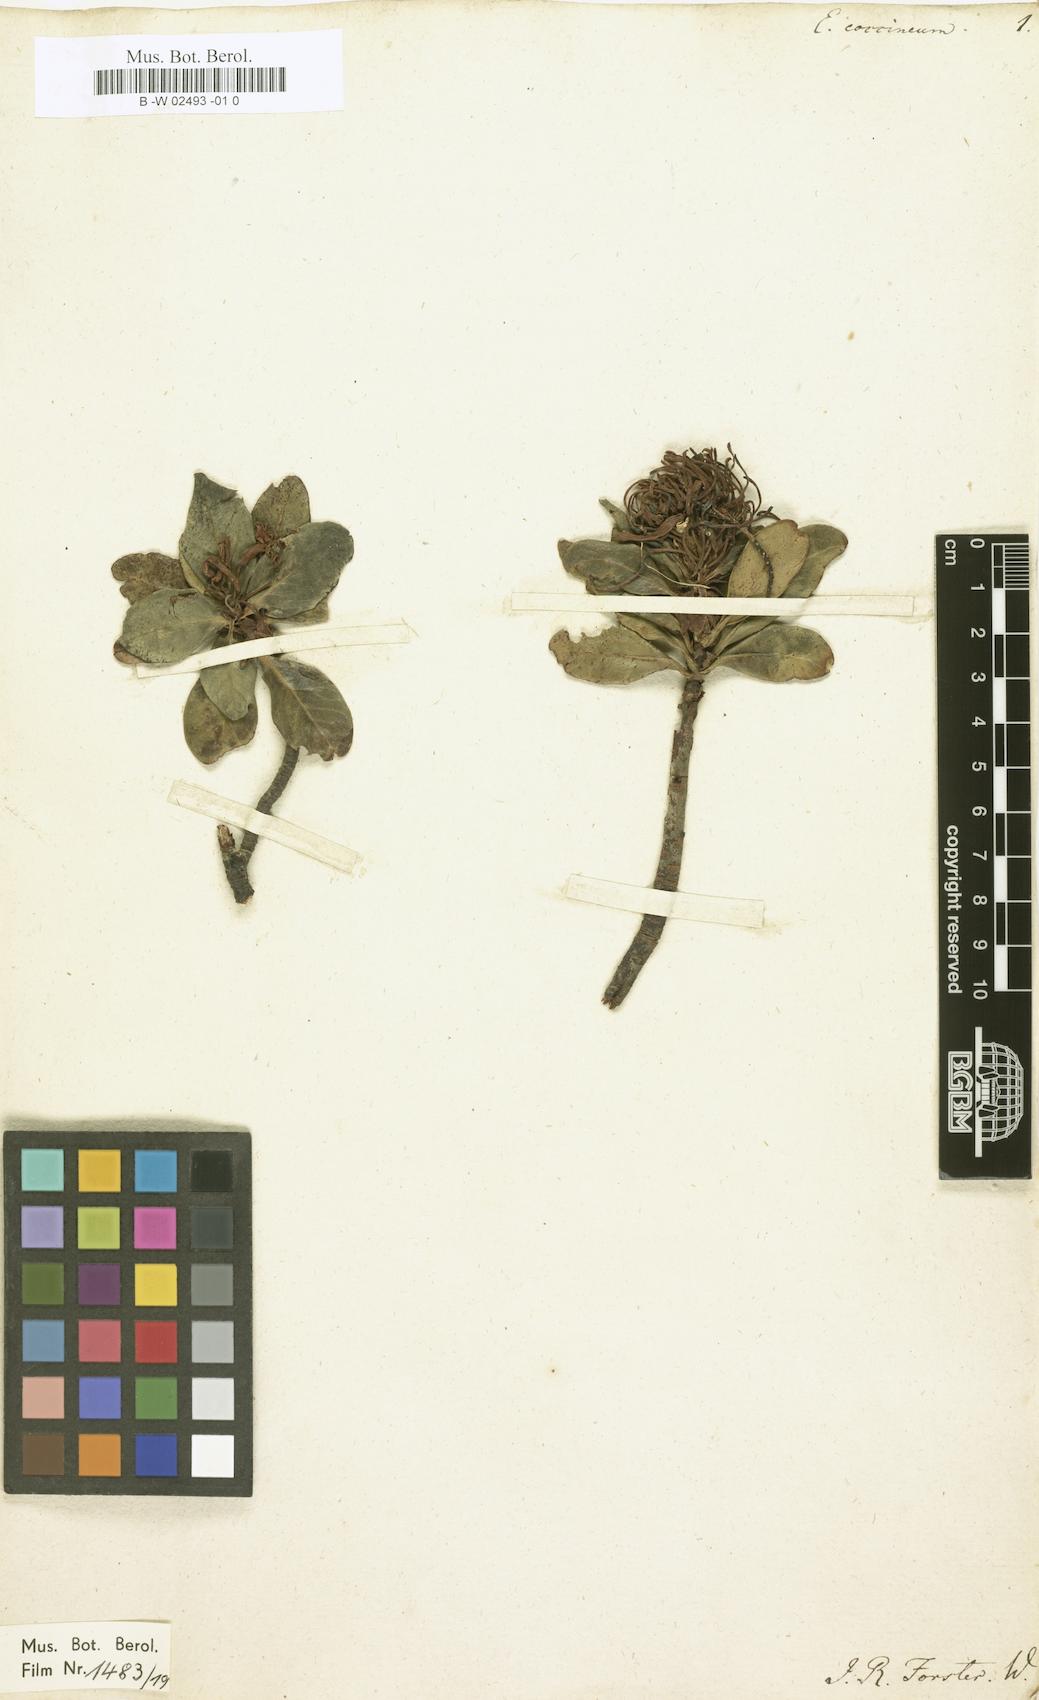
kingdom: Plantae
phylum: Tracheophyta
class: Magnoliopsida
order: Proteales
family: Proteaceae
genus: Embothrium
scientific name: Embothrium coccineum
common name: Chilean firebush
